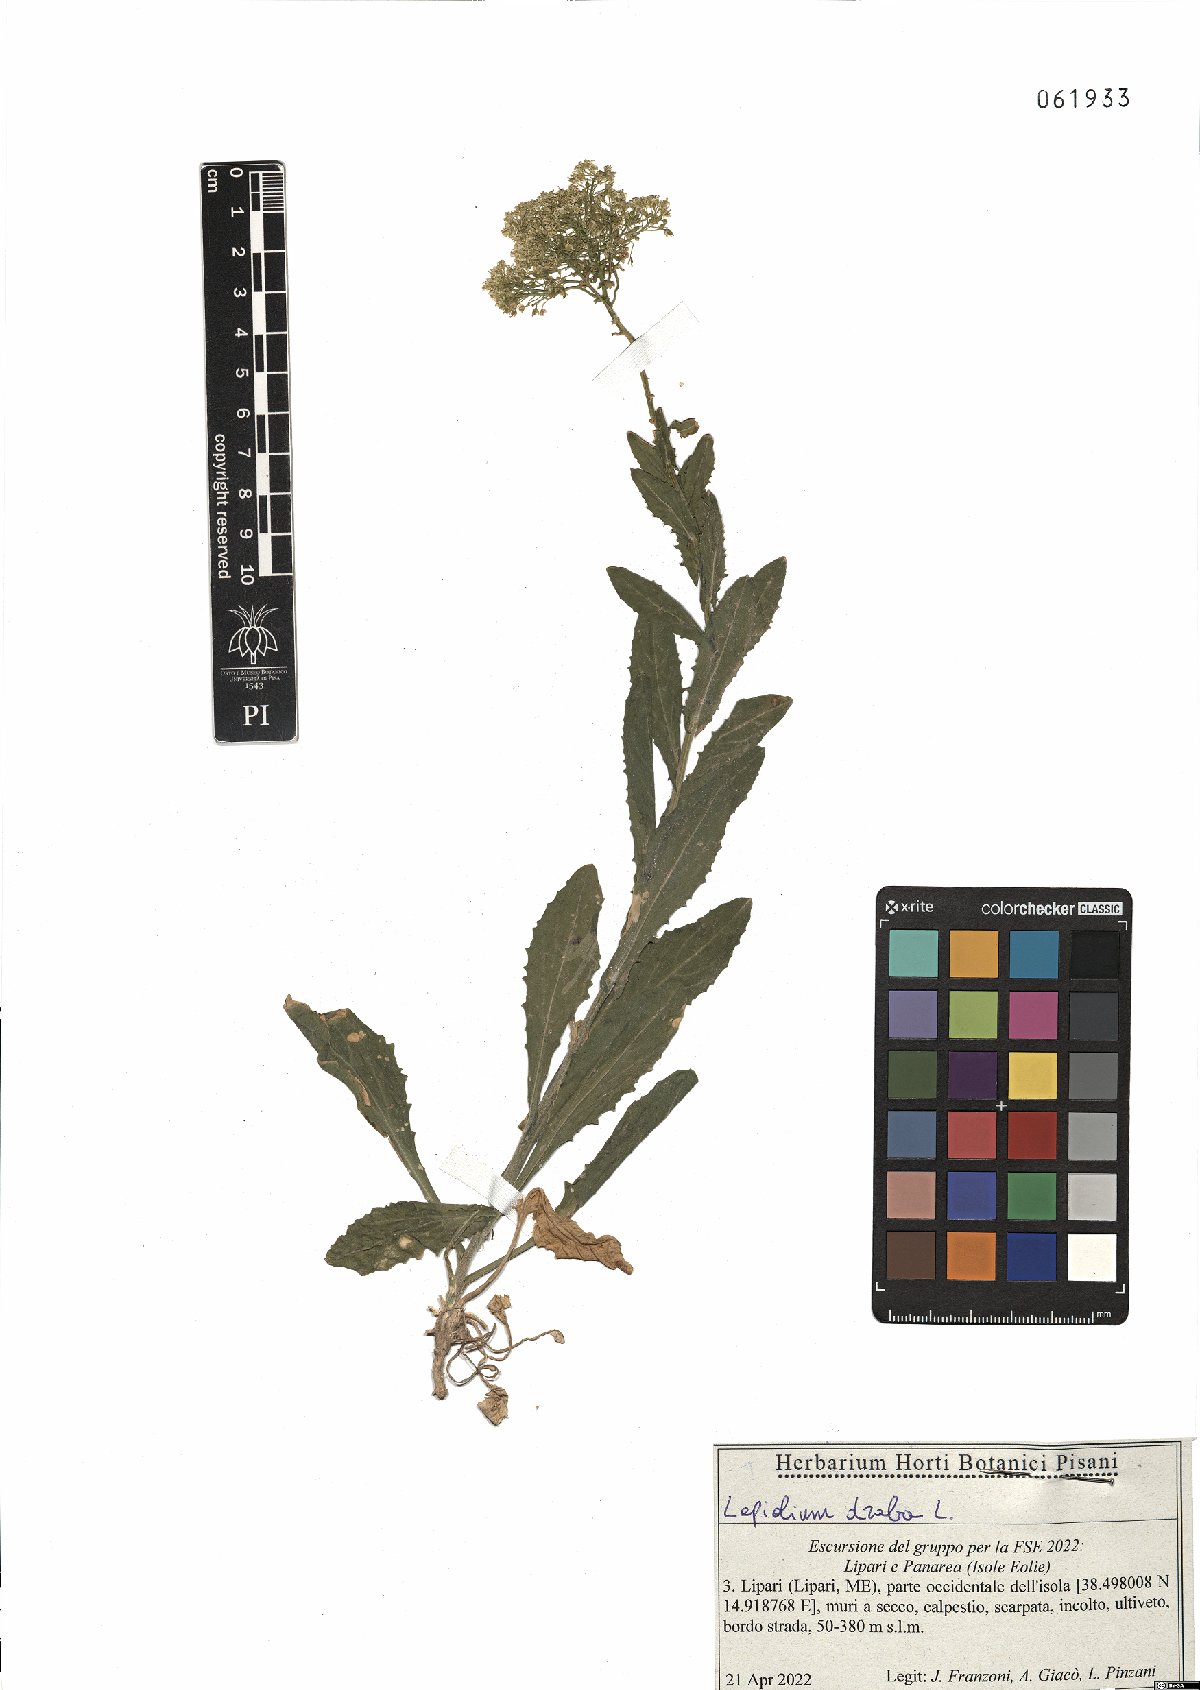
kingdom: Plantae
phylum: Tracheophyta
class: Magnoliopsida
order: Brassicales
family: Brassicaceae
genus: Lepidium
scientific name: Lepidium draba
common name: Hoary cress
